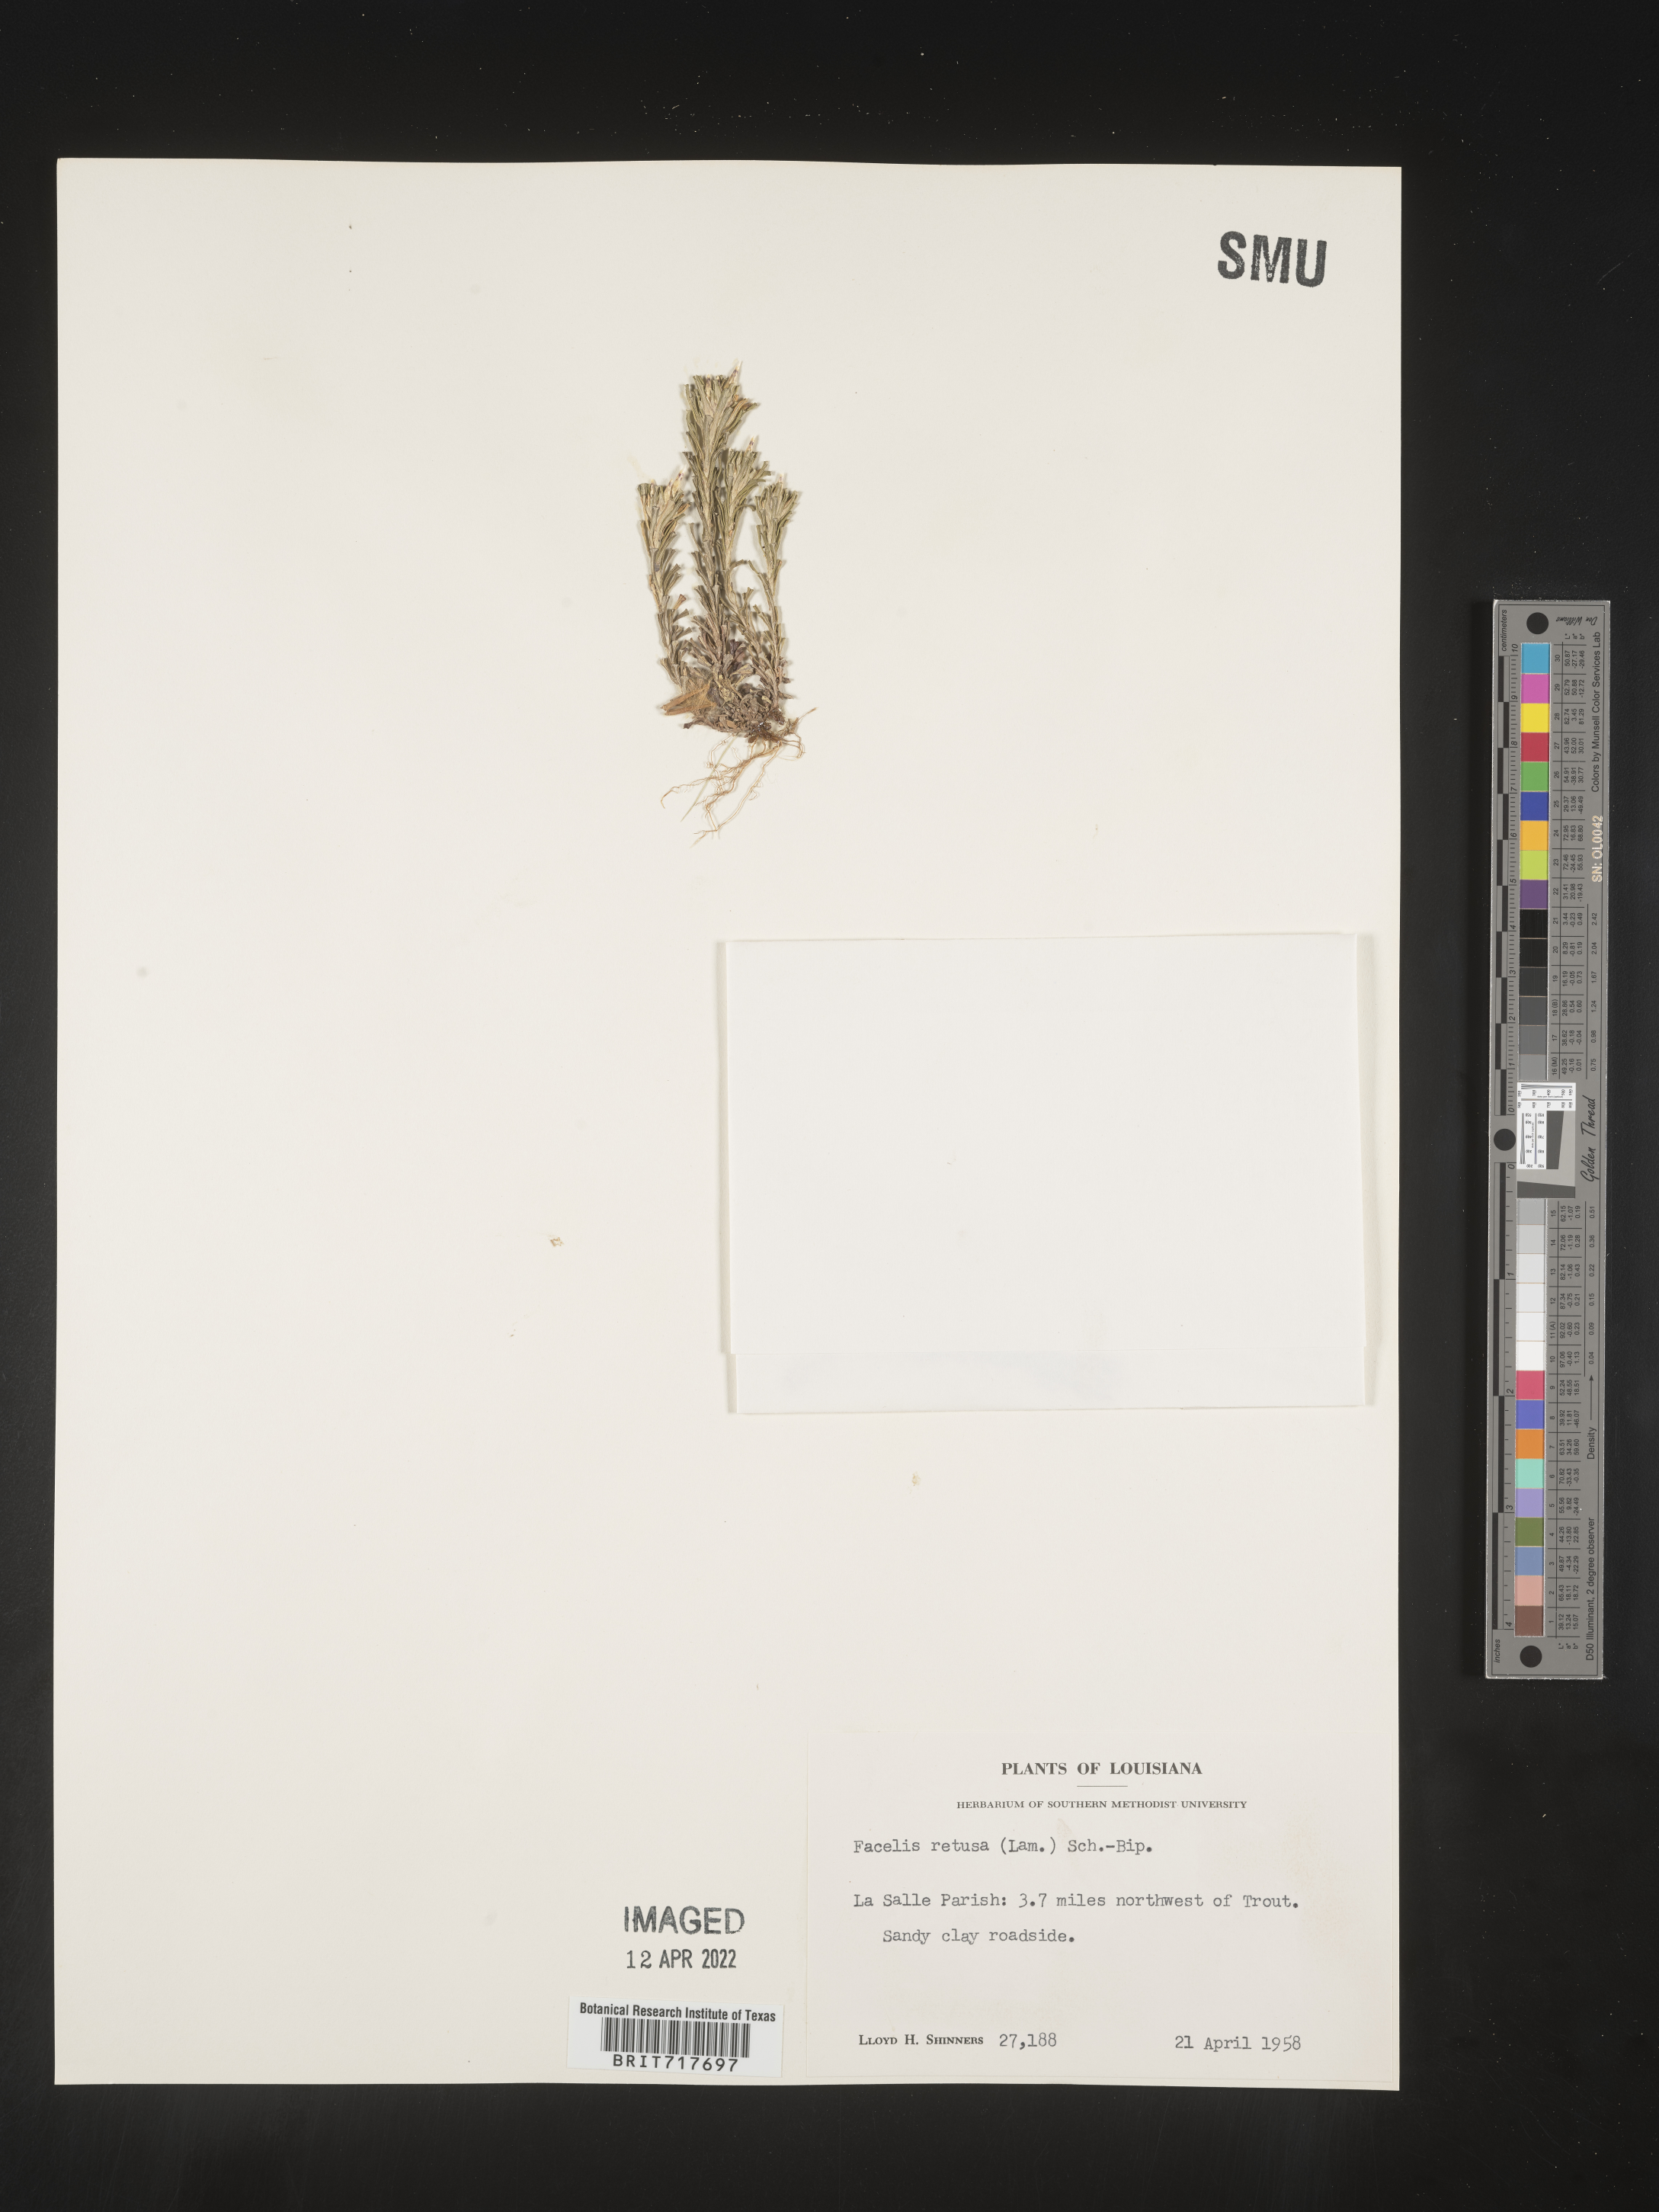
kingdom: Plantae
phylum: Tracheophyta
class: Magnoliopsida
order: Asterales
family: Asteraceae
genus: Facelis
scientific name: Facelis retusa
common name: Annual trampweed
